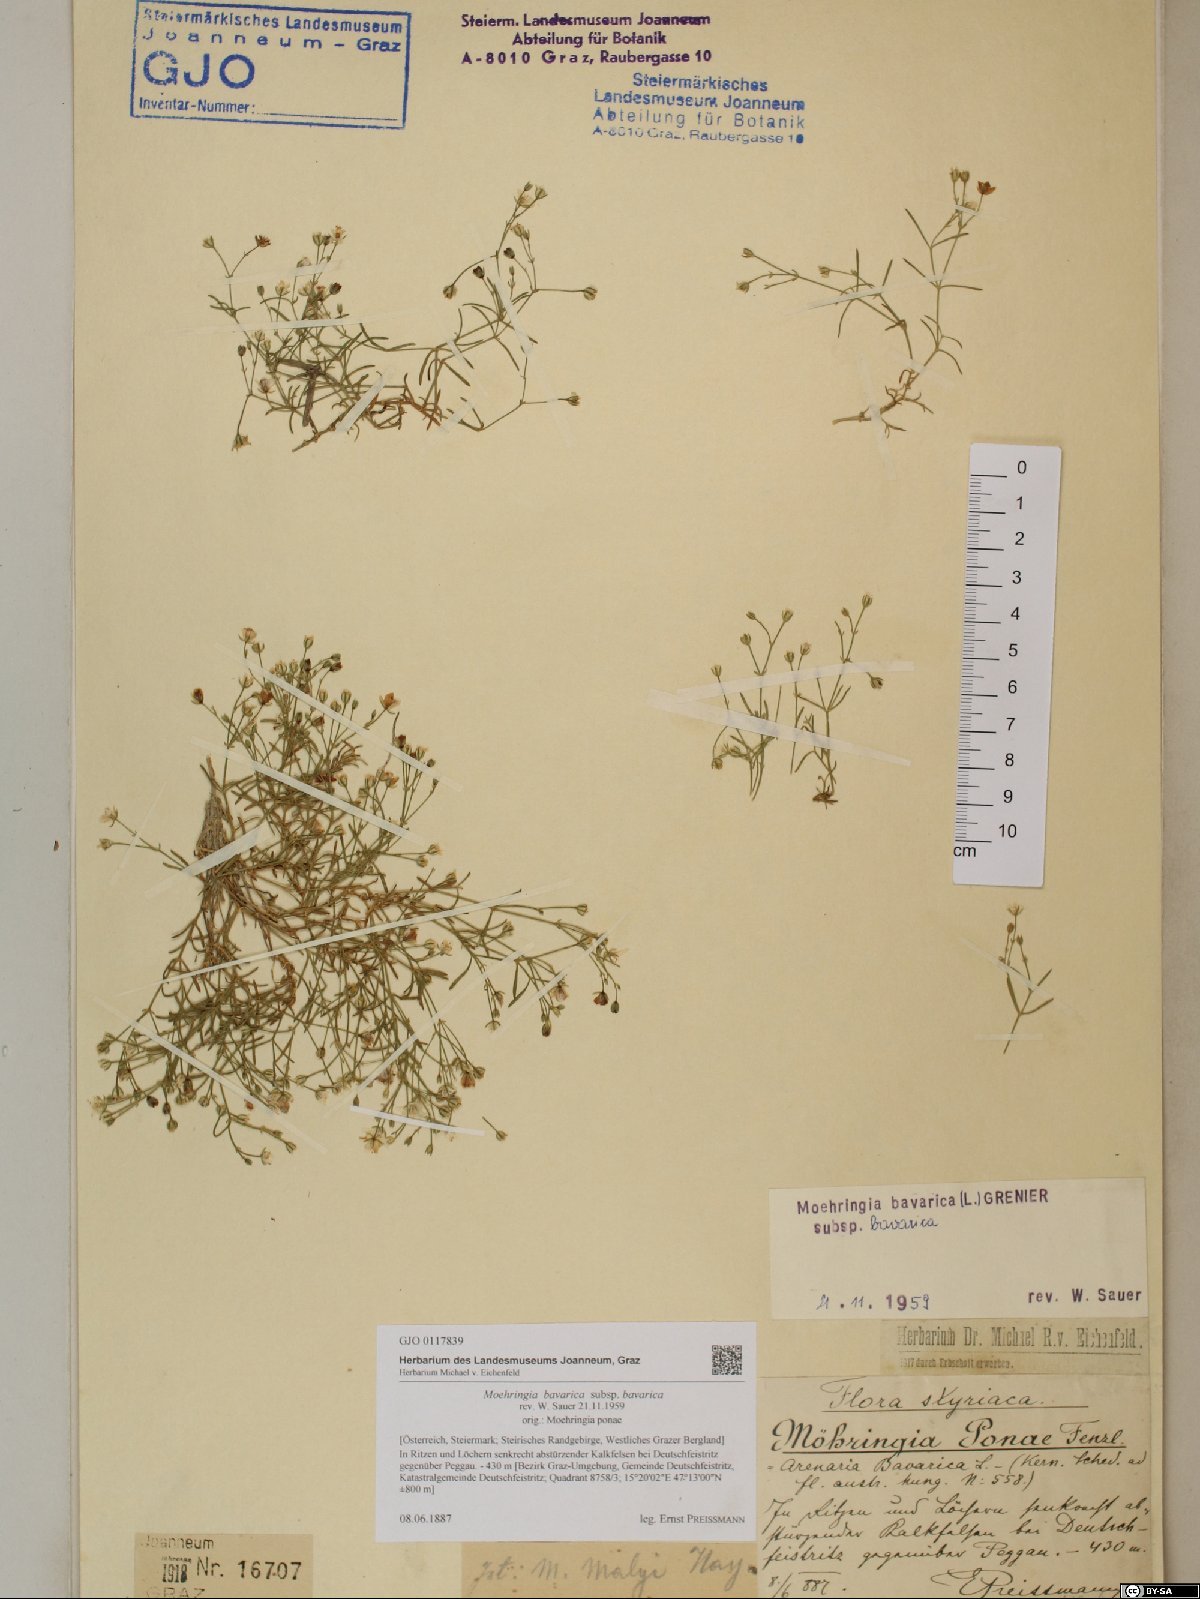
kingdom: Plantae
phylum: Tracheophyta
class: Magnoliopsida
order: Caryophyllales
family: Caryophyllaceae
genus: Moehringia
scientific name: Moehringia bavarica
